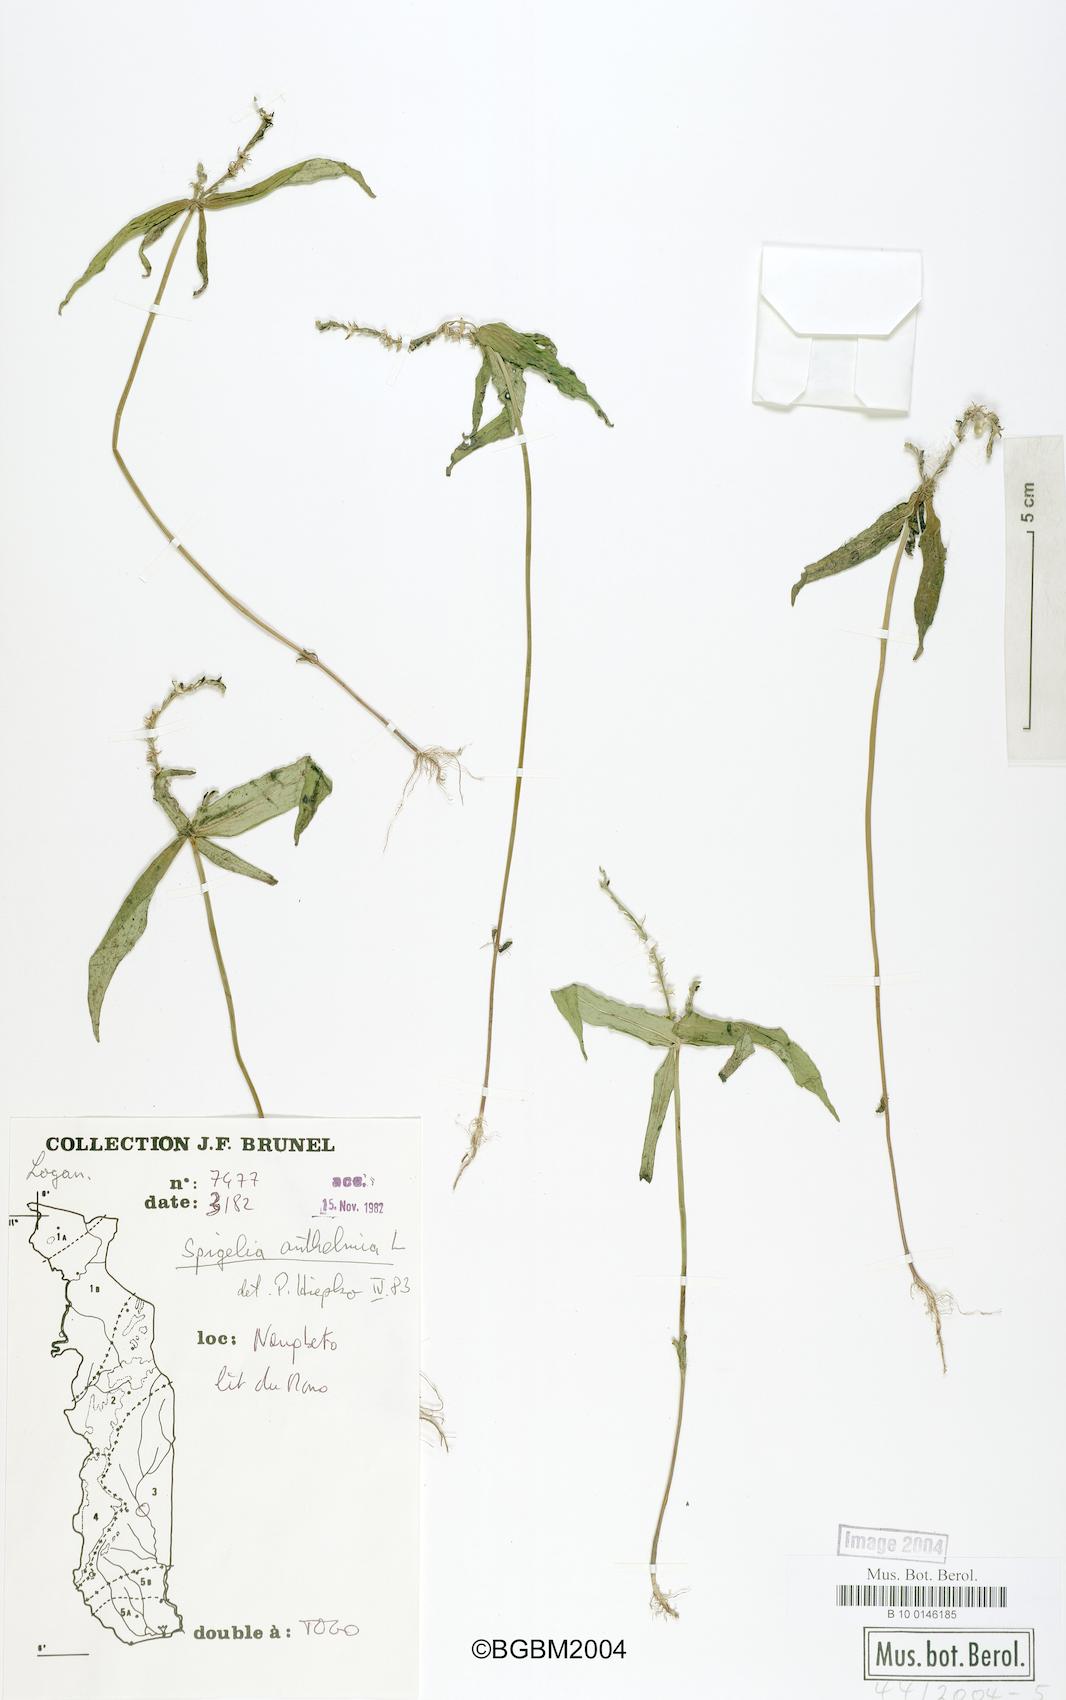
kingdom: Plantae
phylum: Tracheophyta
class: Magnoliopsida
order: Gentianales
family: Loganiaceae
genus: Spigelia
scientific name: Spigelia anthelmia
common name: West indian-pink
